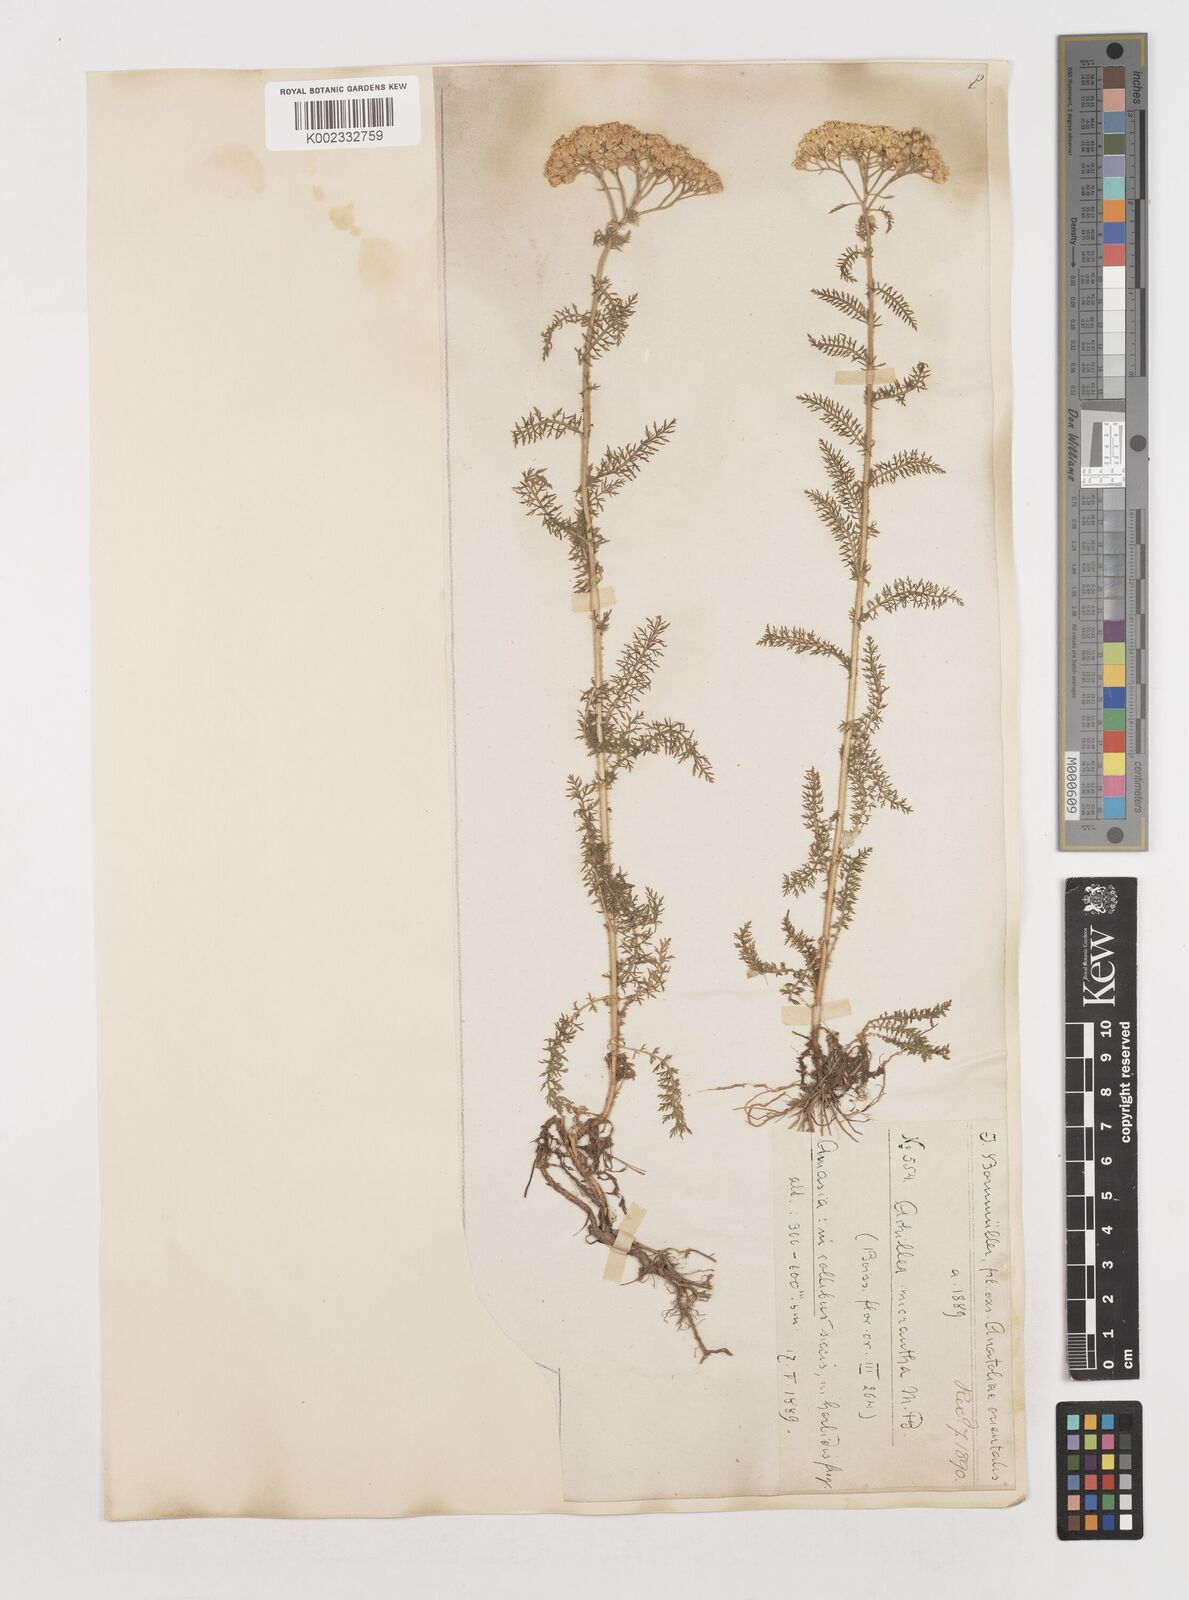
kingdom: Plantae
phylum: Tracheophyta
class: Magnoliopsida
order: Asterales
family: Asteraceae
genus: Achillea
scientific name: Achillea micrantha
